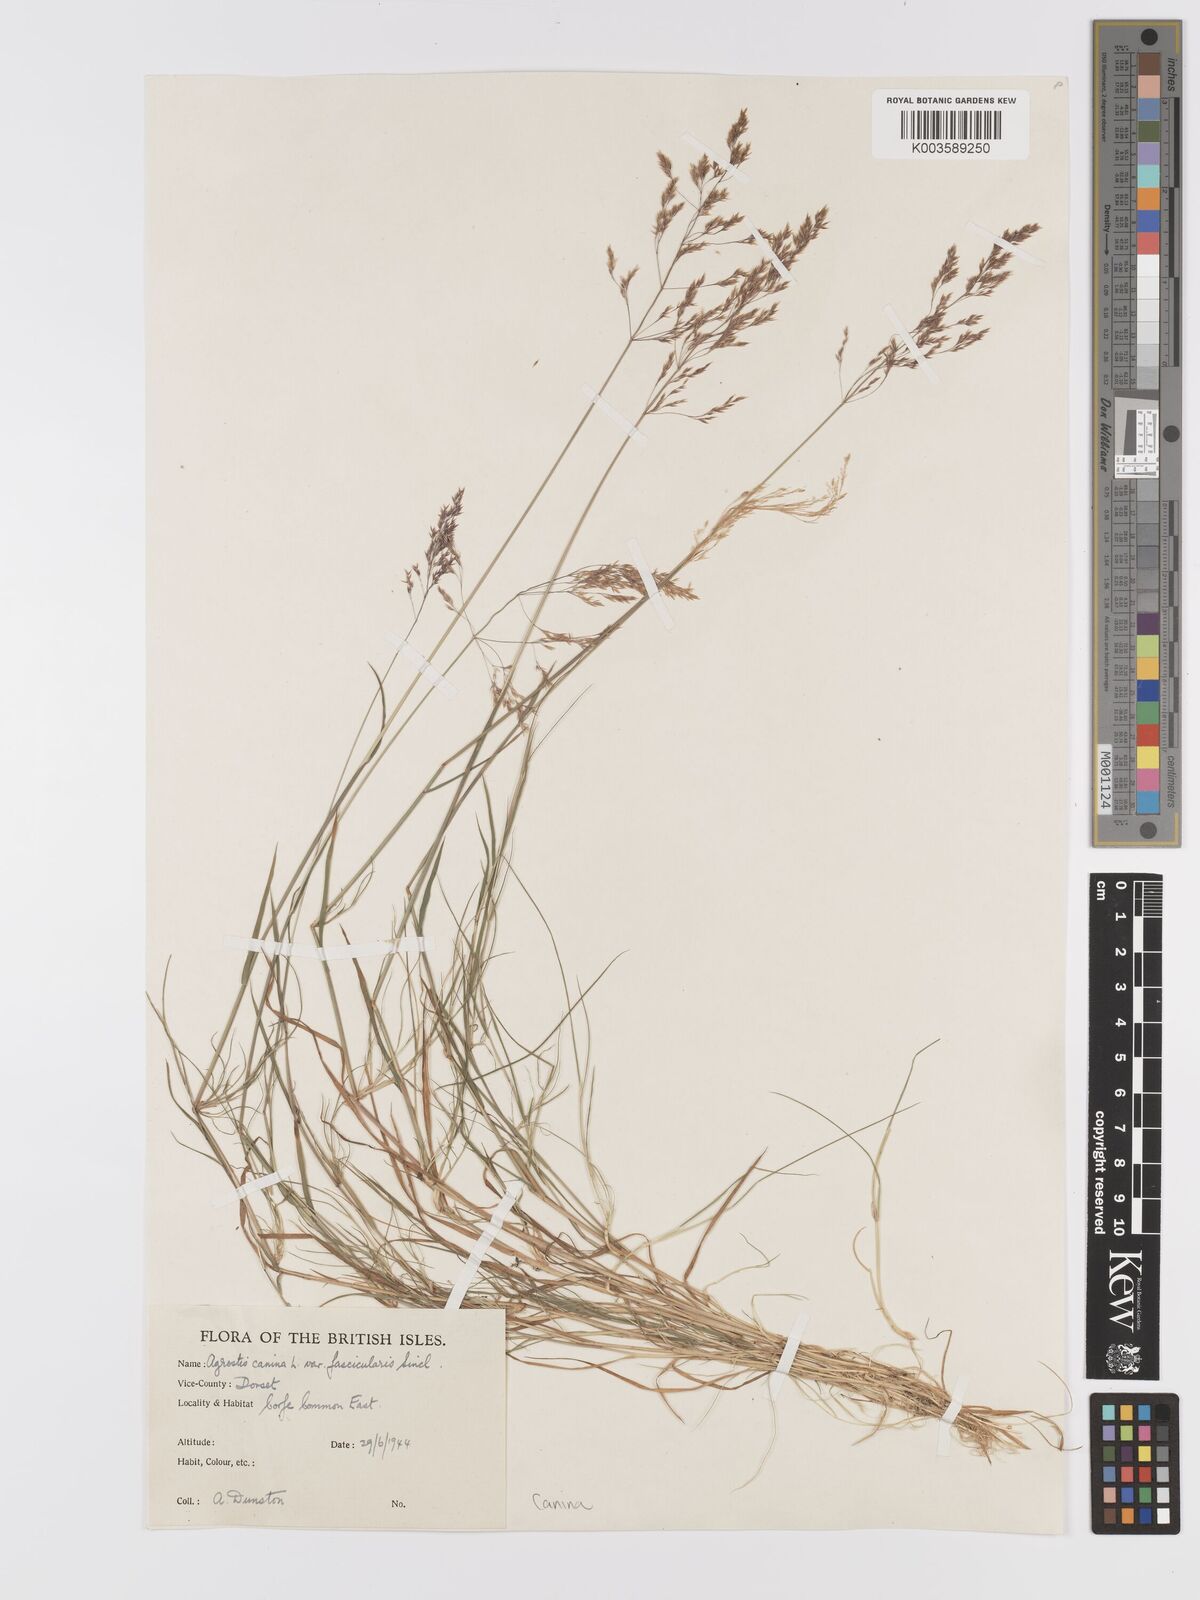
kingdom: Plantae
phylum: Tracheophyta
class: Liliopsida
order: Poales
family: Poaceae
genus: Agrostis
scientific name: Agrostis canina
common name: Velvet bent
